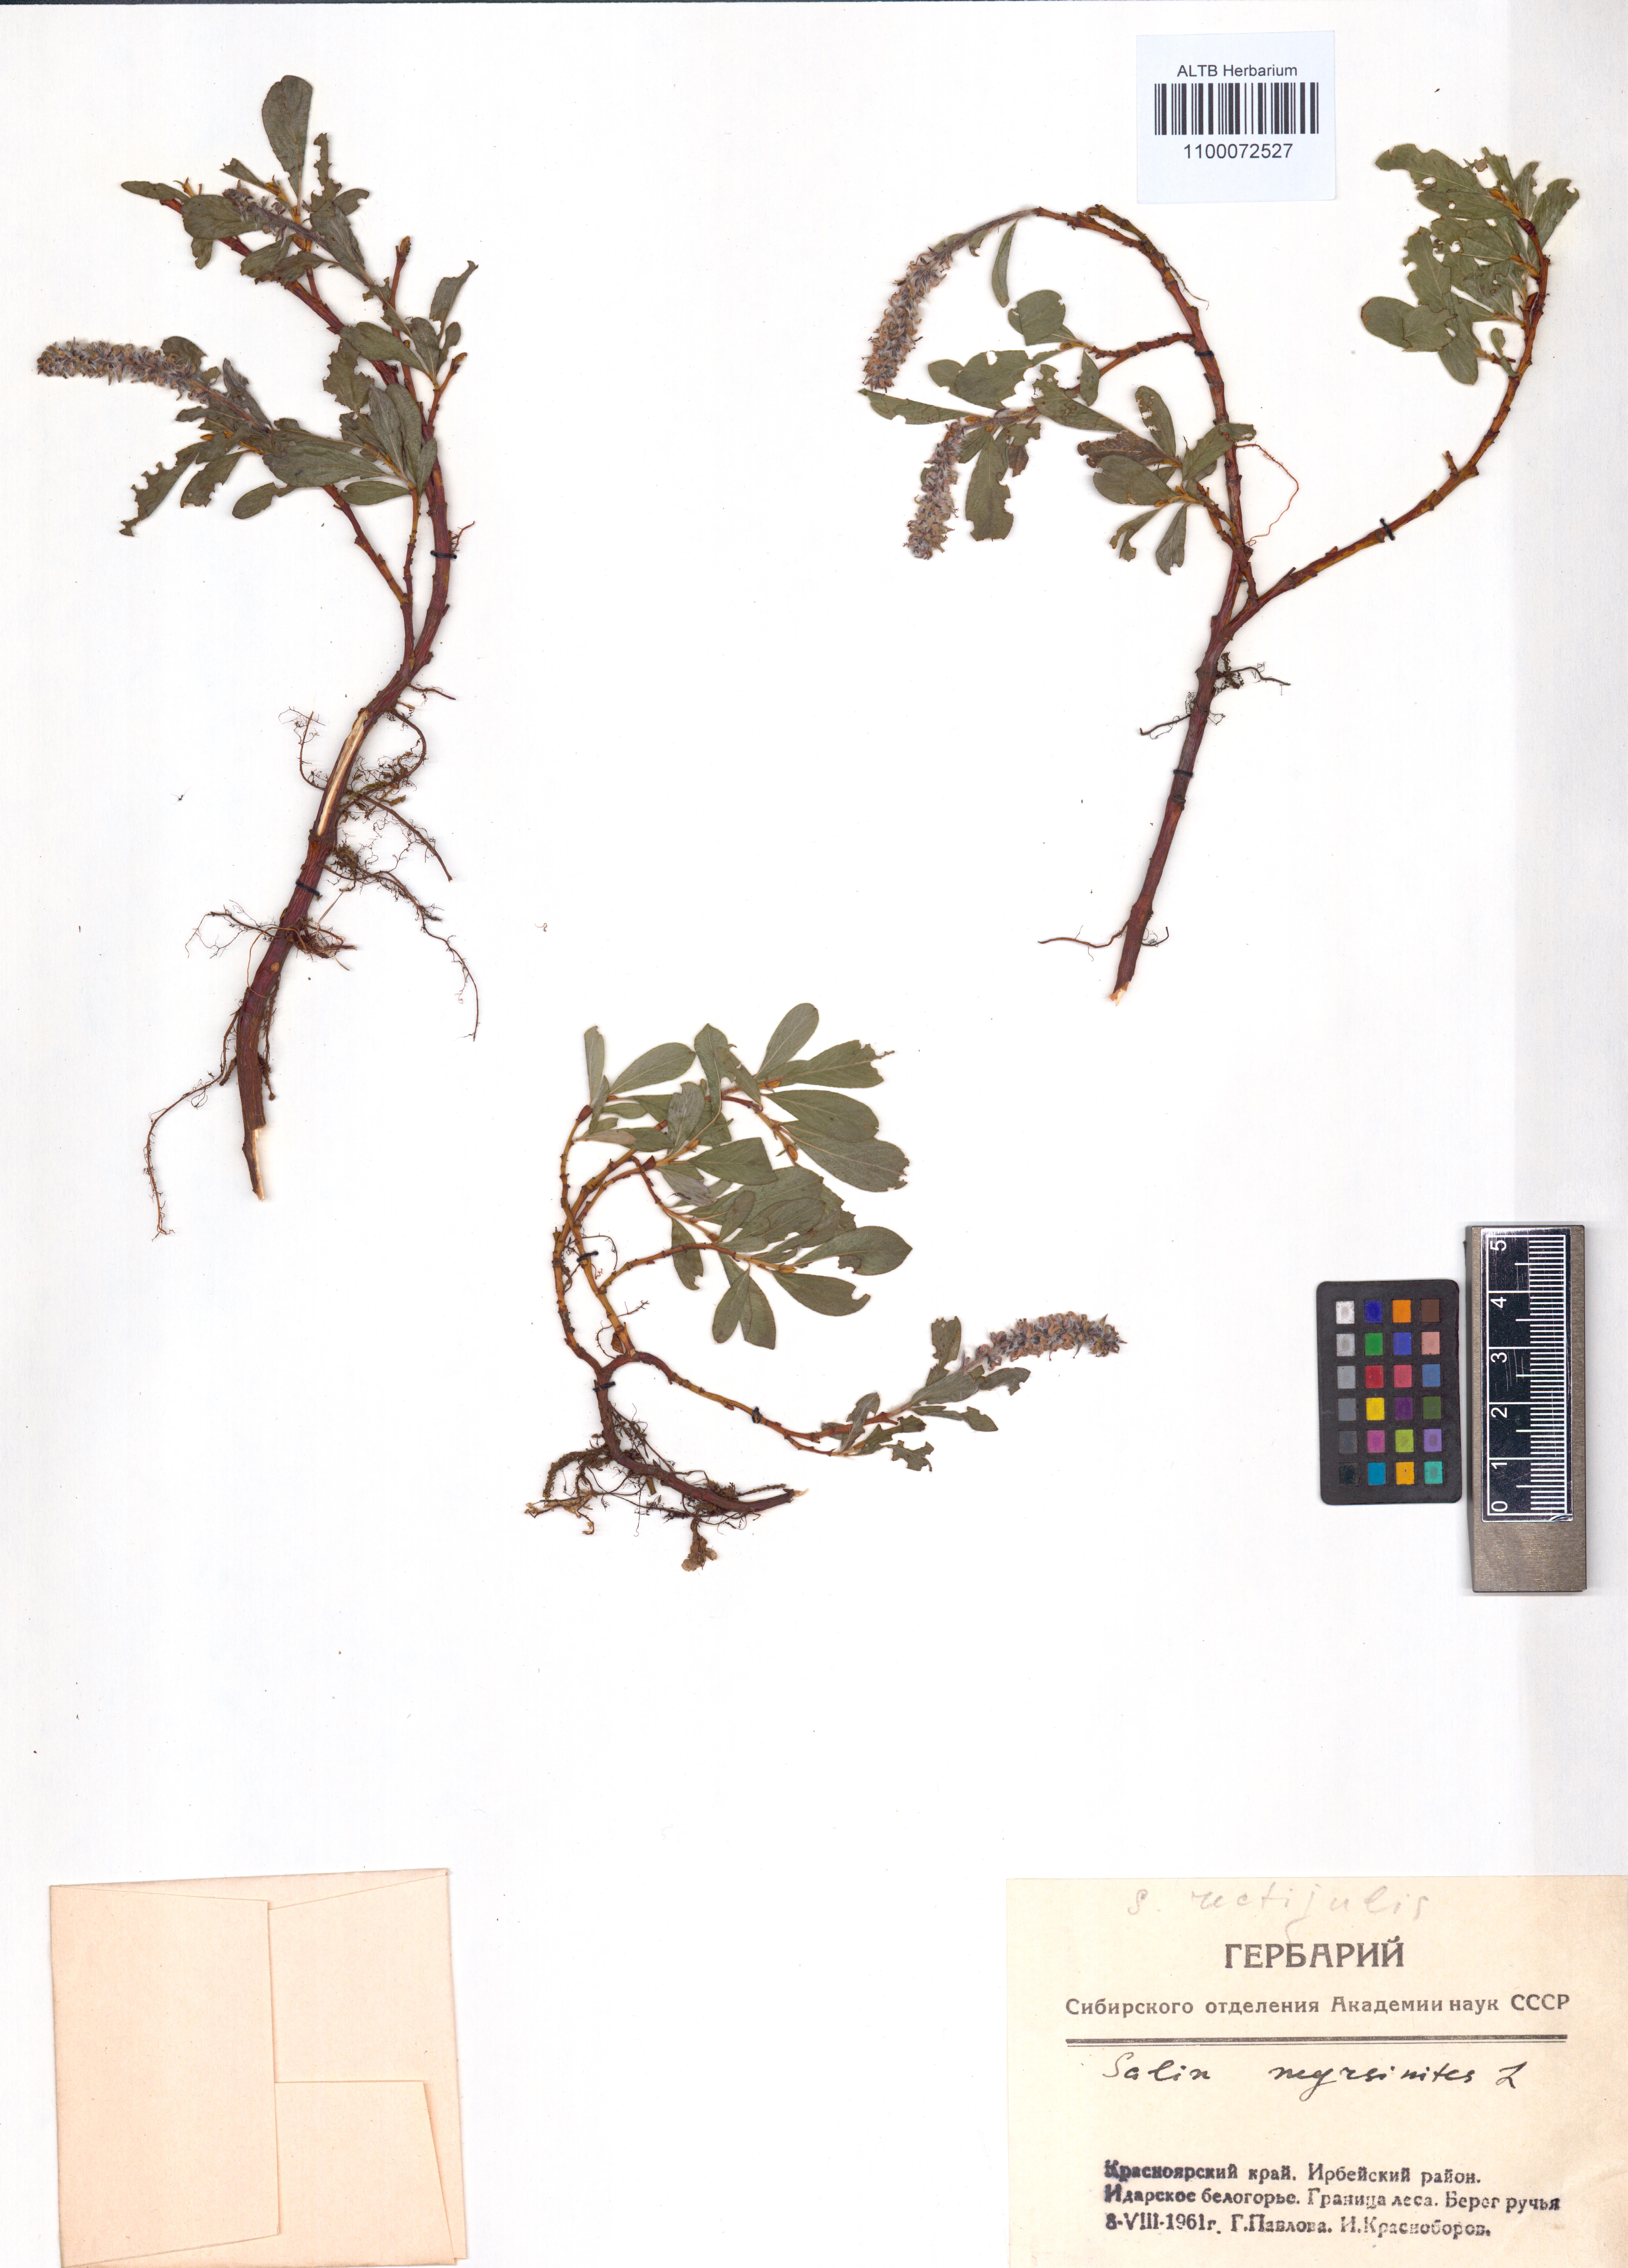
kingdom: Plantae
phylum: Tracheophyta
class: Magnoliopsida
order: Malpighiales
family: Salicaceae
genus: Salix
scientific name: Salix myrsinites
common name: Myrtle willow
